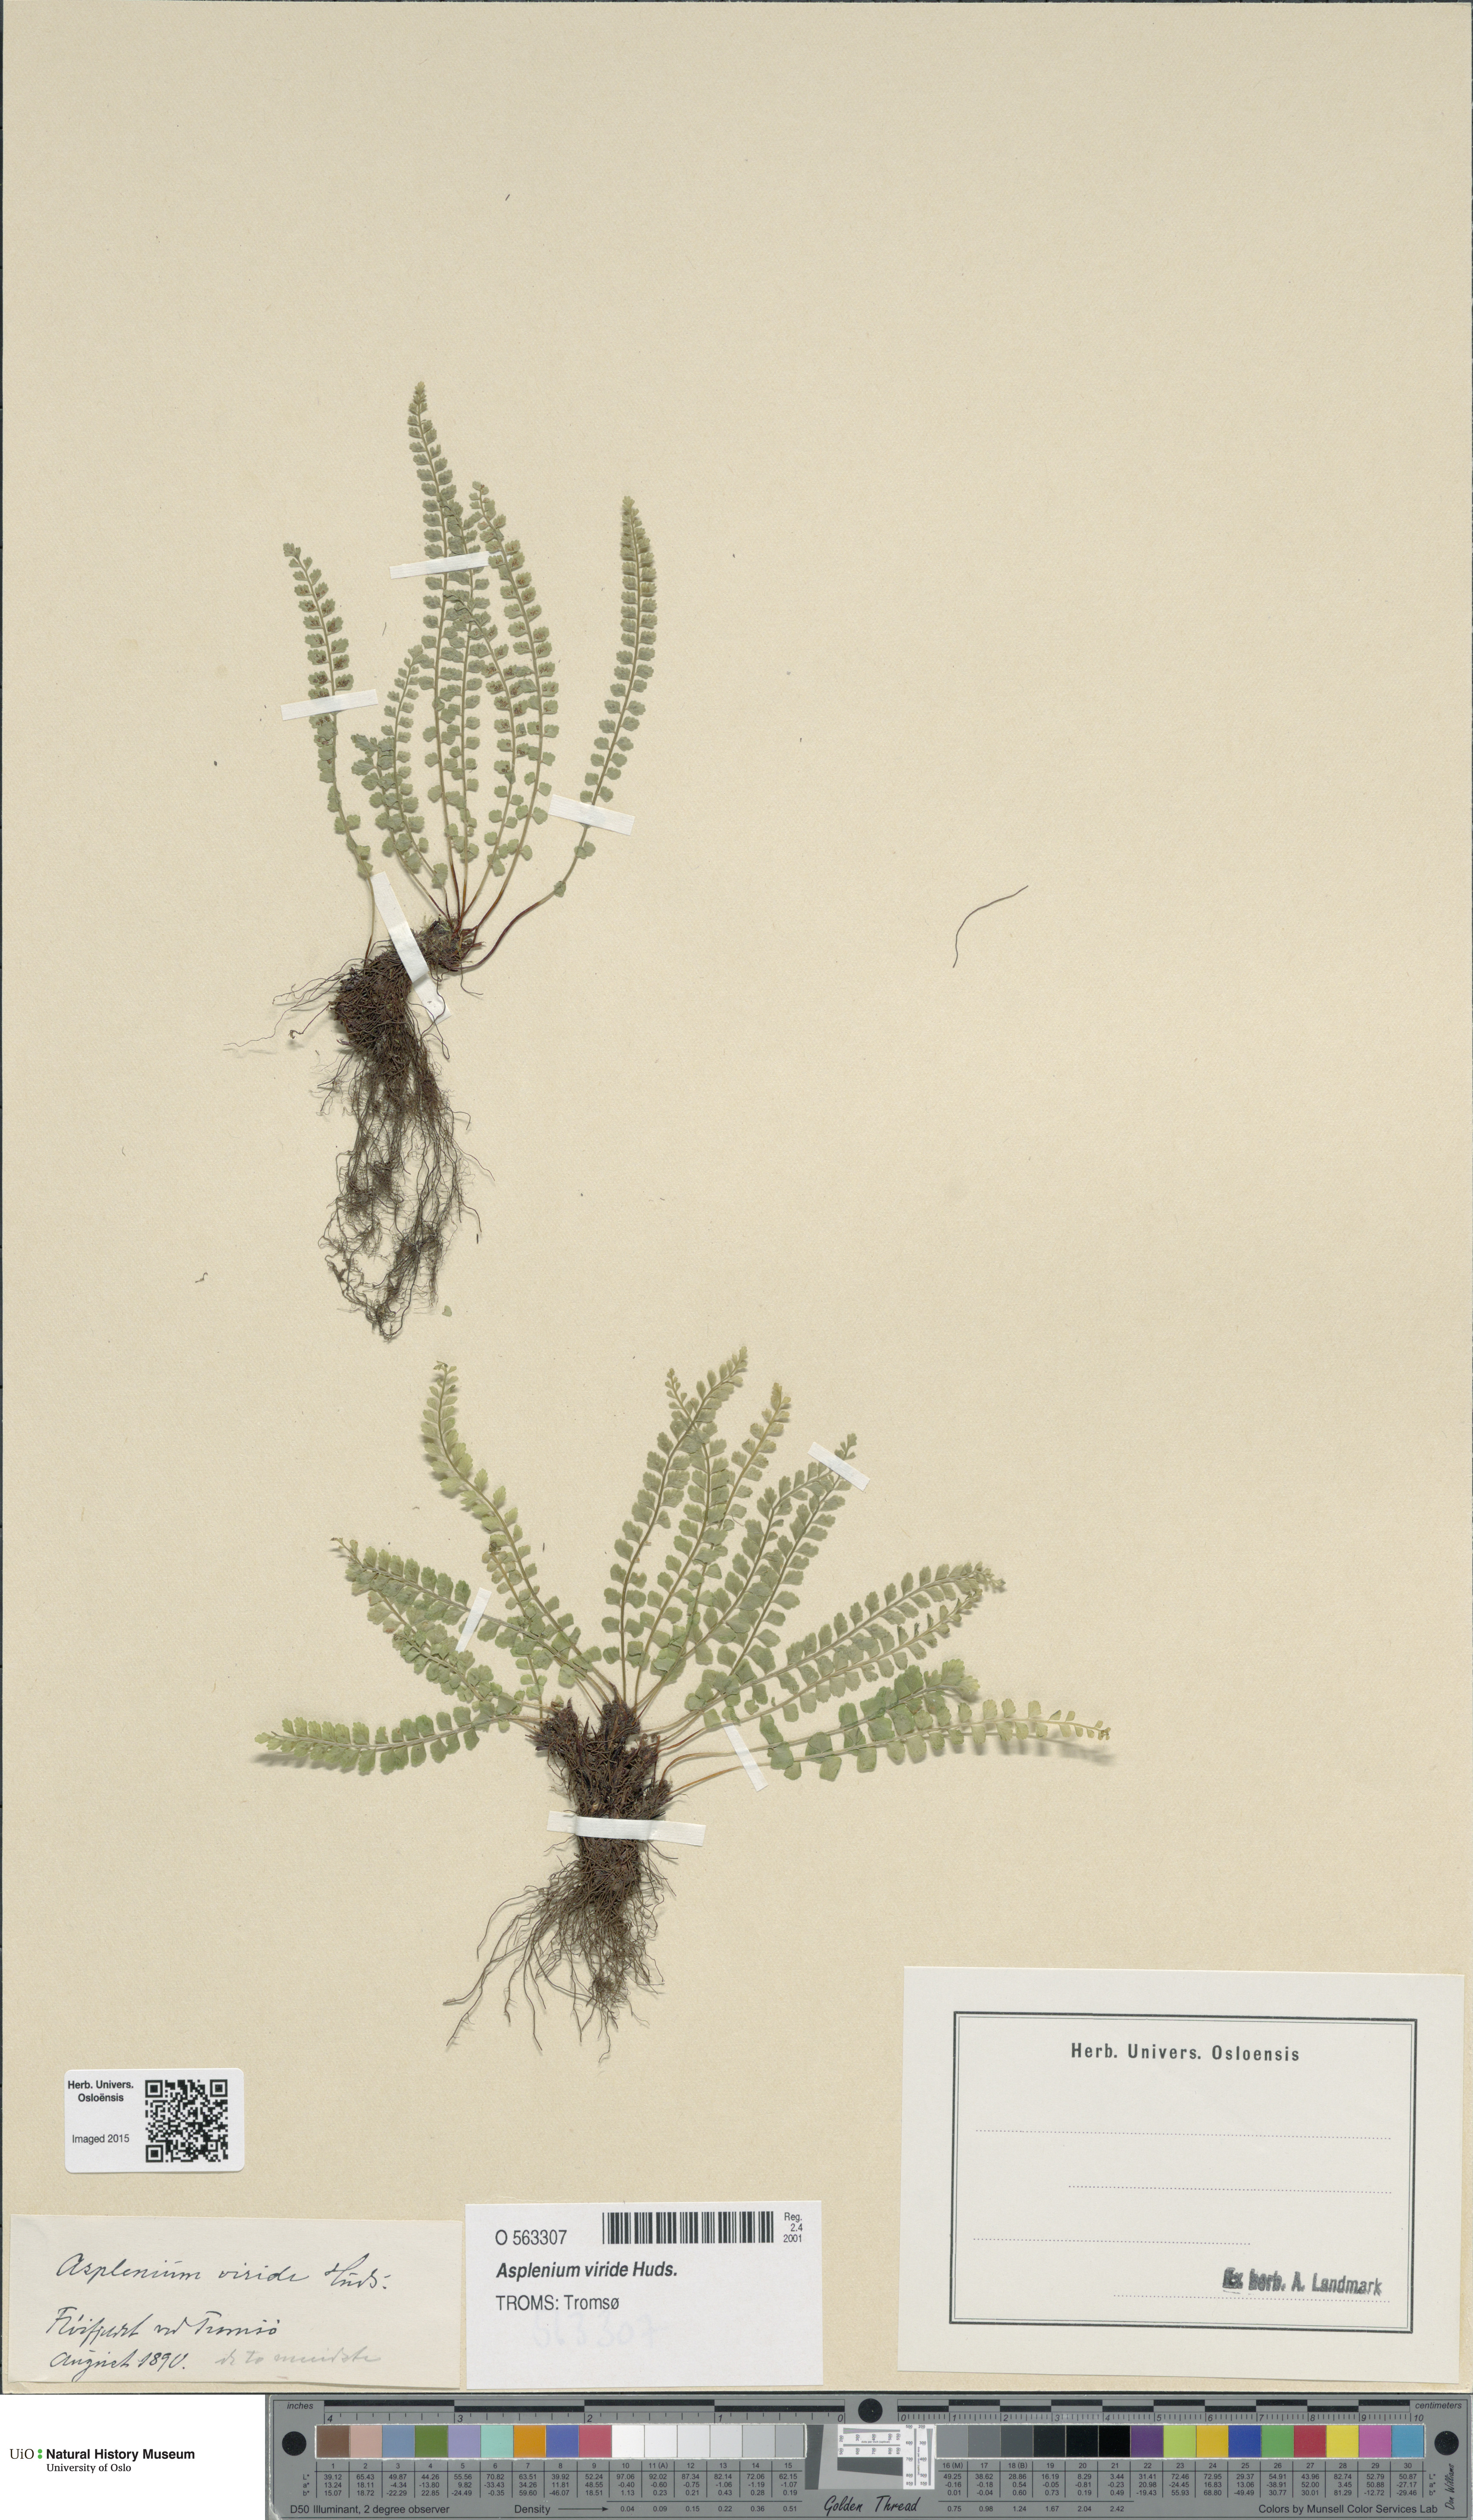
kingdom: Plantae
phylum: Tracheophyta
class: Polypodiopsida
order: Polypodiales
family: Aspleniaceae
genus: Asplenium
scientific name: Asplenium viride
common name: Green spleenwort
